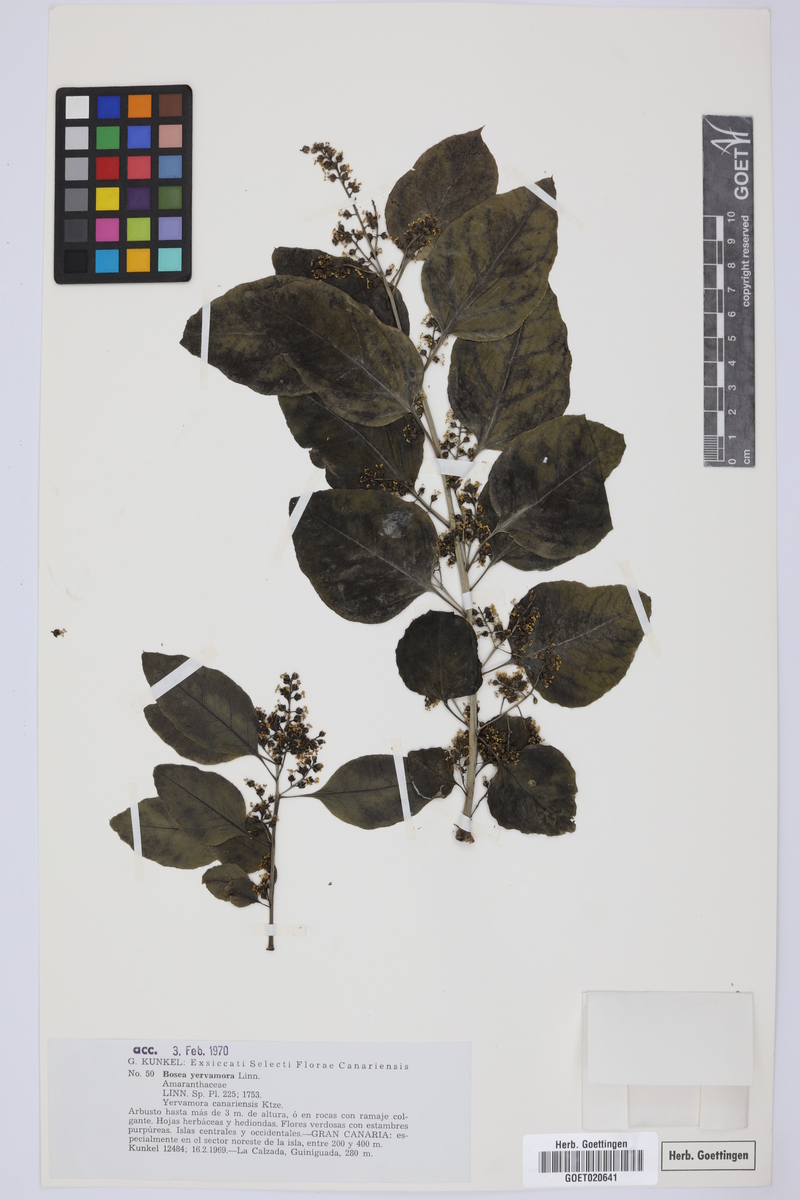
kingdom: Plantae
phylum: Tracheophyta
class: Magnoliopsida
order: Caryophyllales
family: Amaranthaceae
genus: Bosea
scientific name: Bosea yervamora
